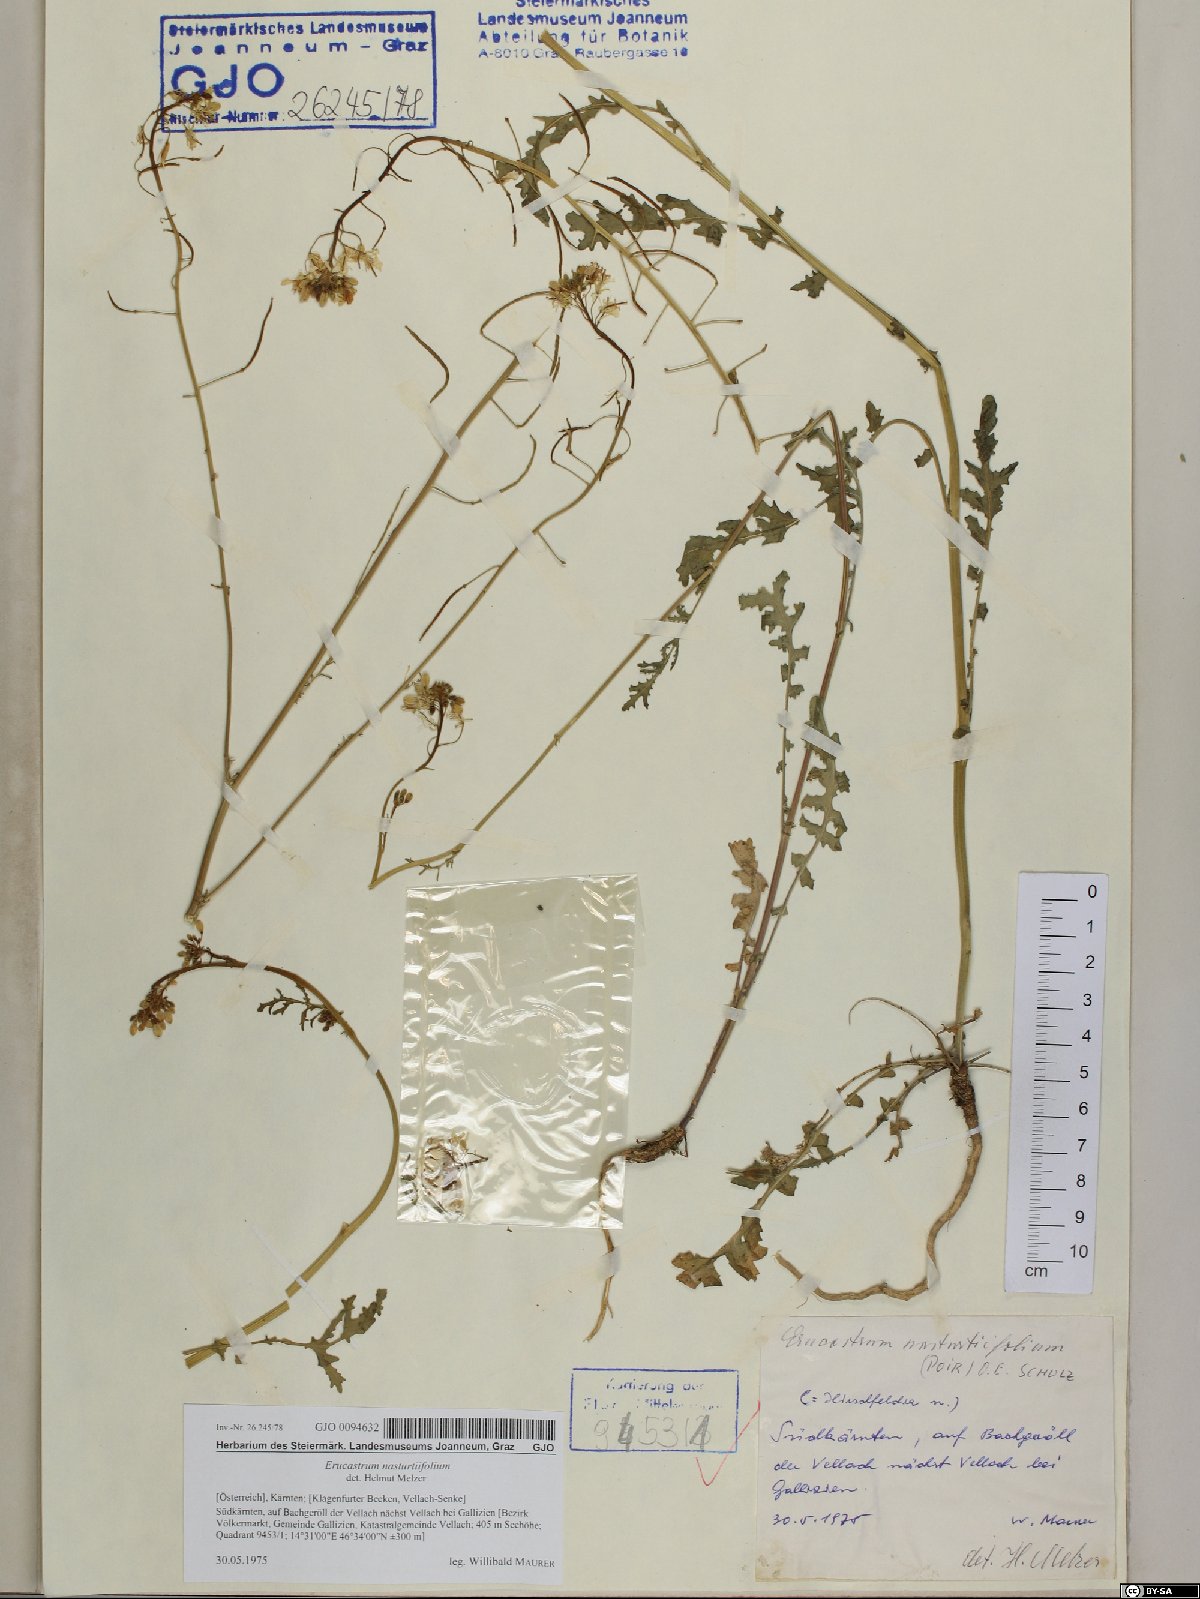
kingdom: Plantae
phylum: Tracheophyta
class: Magnoliopsida
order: Brassicales
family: Brassicaceae
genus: Erucastrum
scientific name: Erucastrum nasturtiifolium
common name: Watercress-leaf rocket
